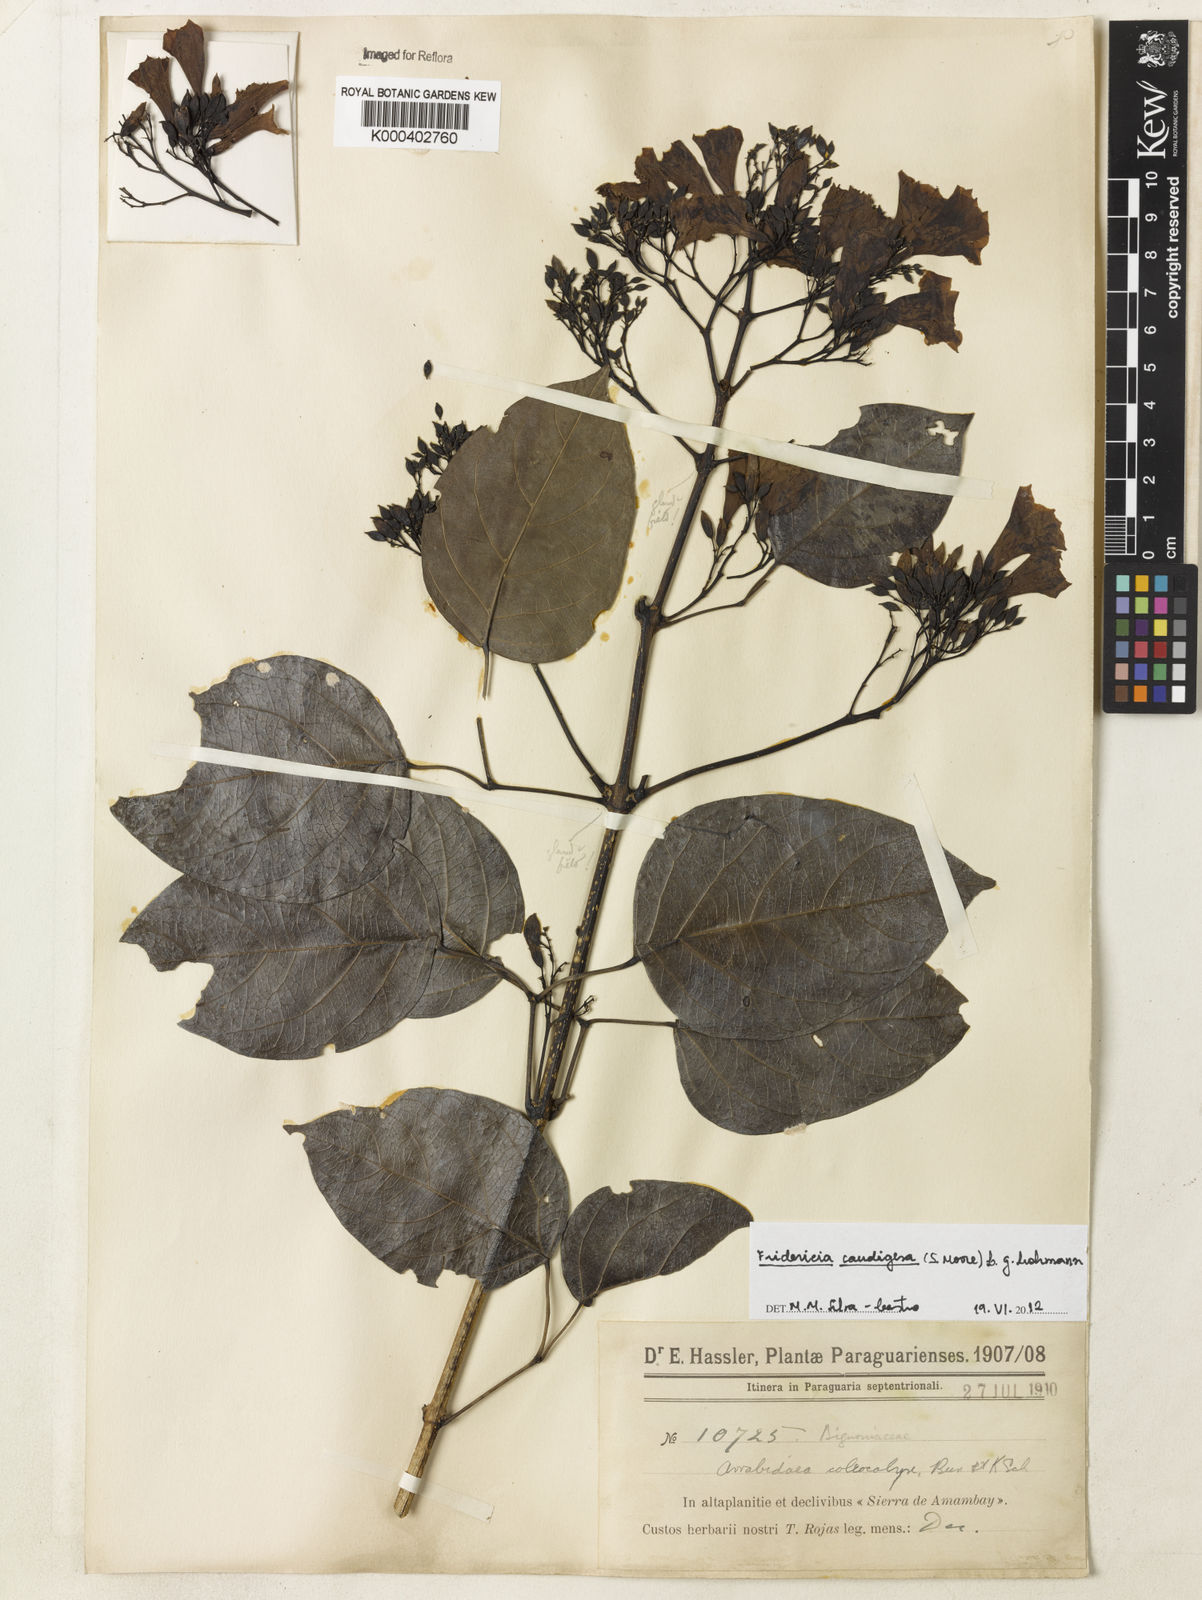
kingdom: Plantae
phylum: Tracheophyta
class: Magnoliopsida
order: Lamiales
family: Bignoniaceae
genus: Fridericia
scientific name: Fridericia caudigera
